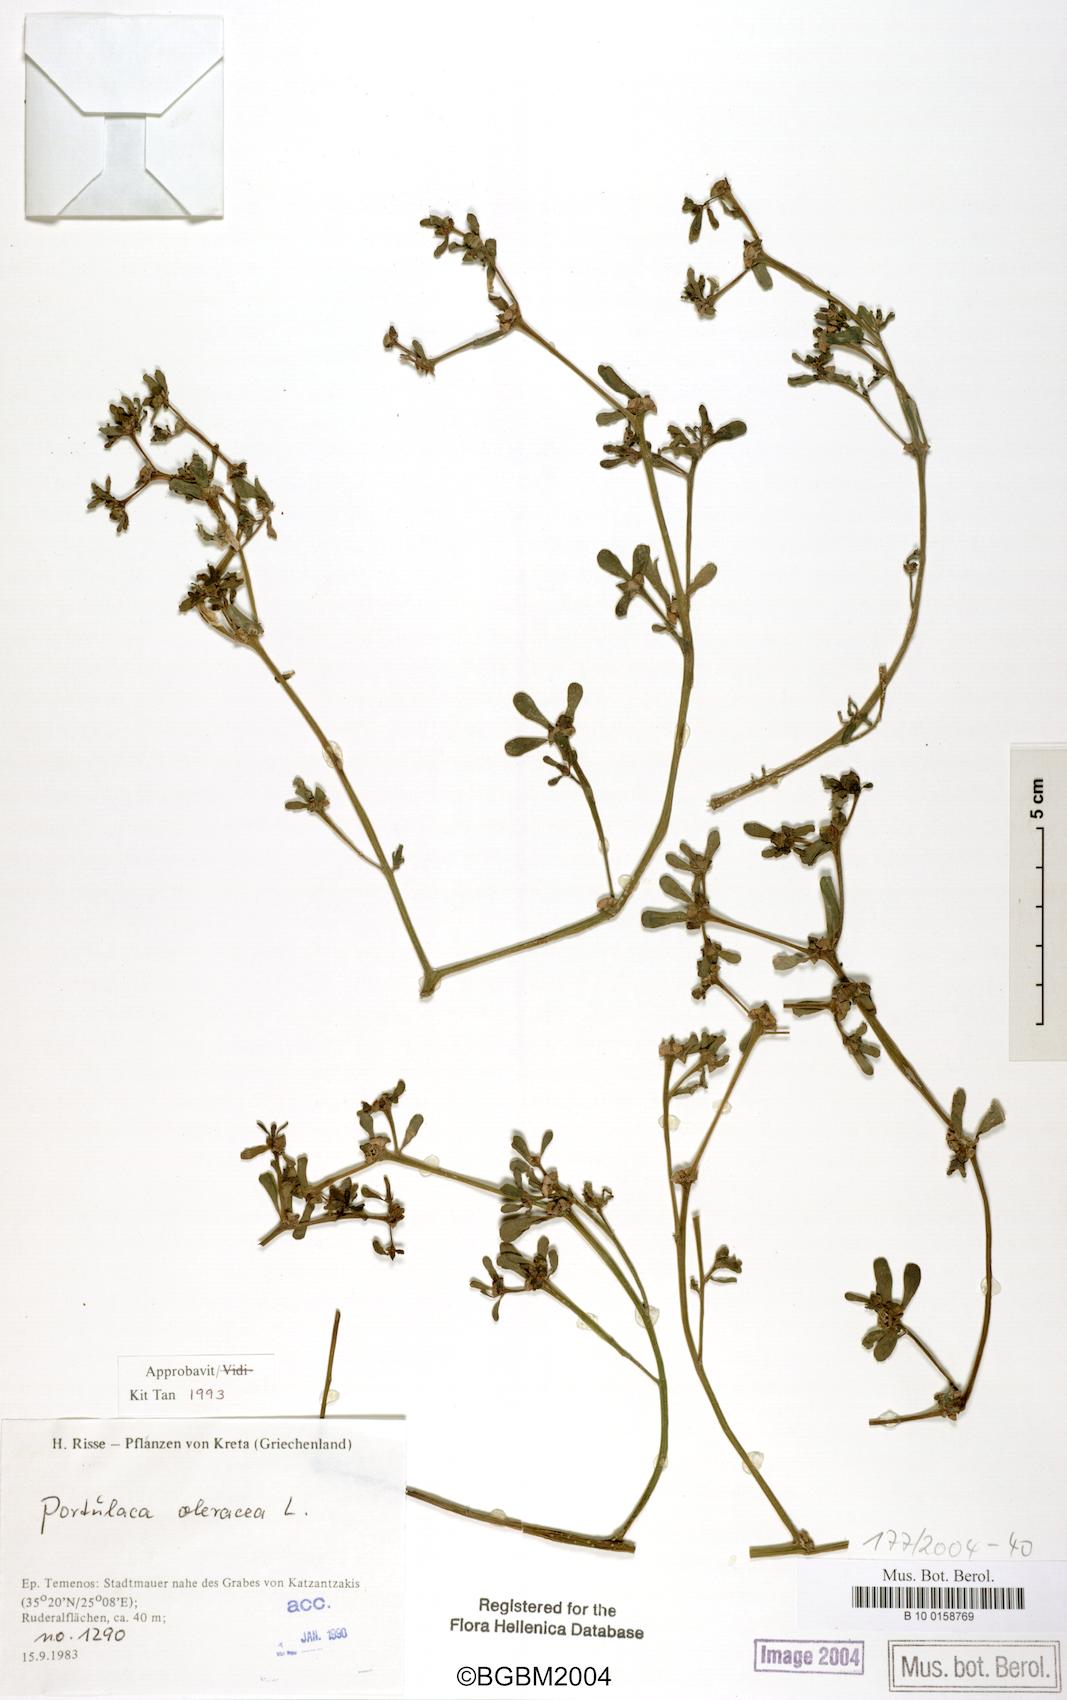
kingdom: Plantae
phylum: Tracheophyta
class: Magnoliopsida
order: Caryophyllales
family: Portulacaceae
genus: Portulaca
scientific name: Portulaca oleracea
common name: Common purslane
